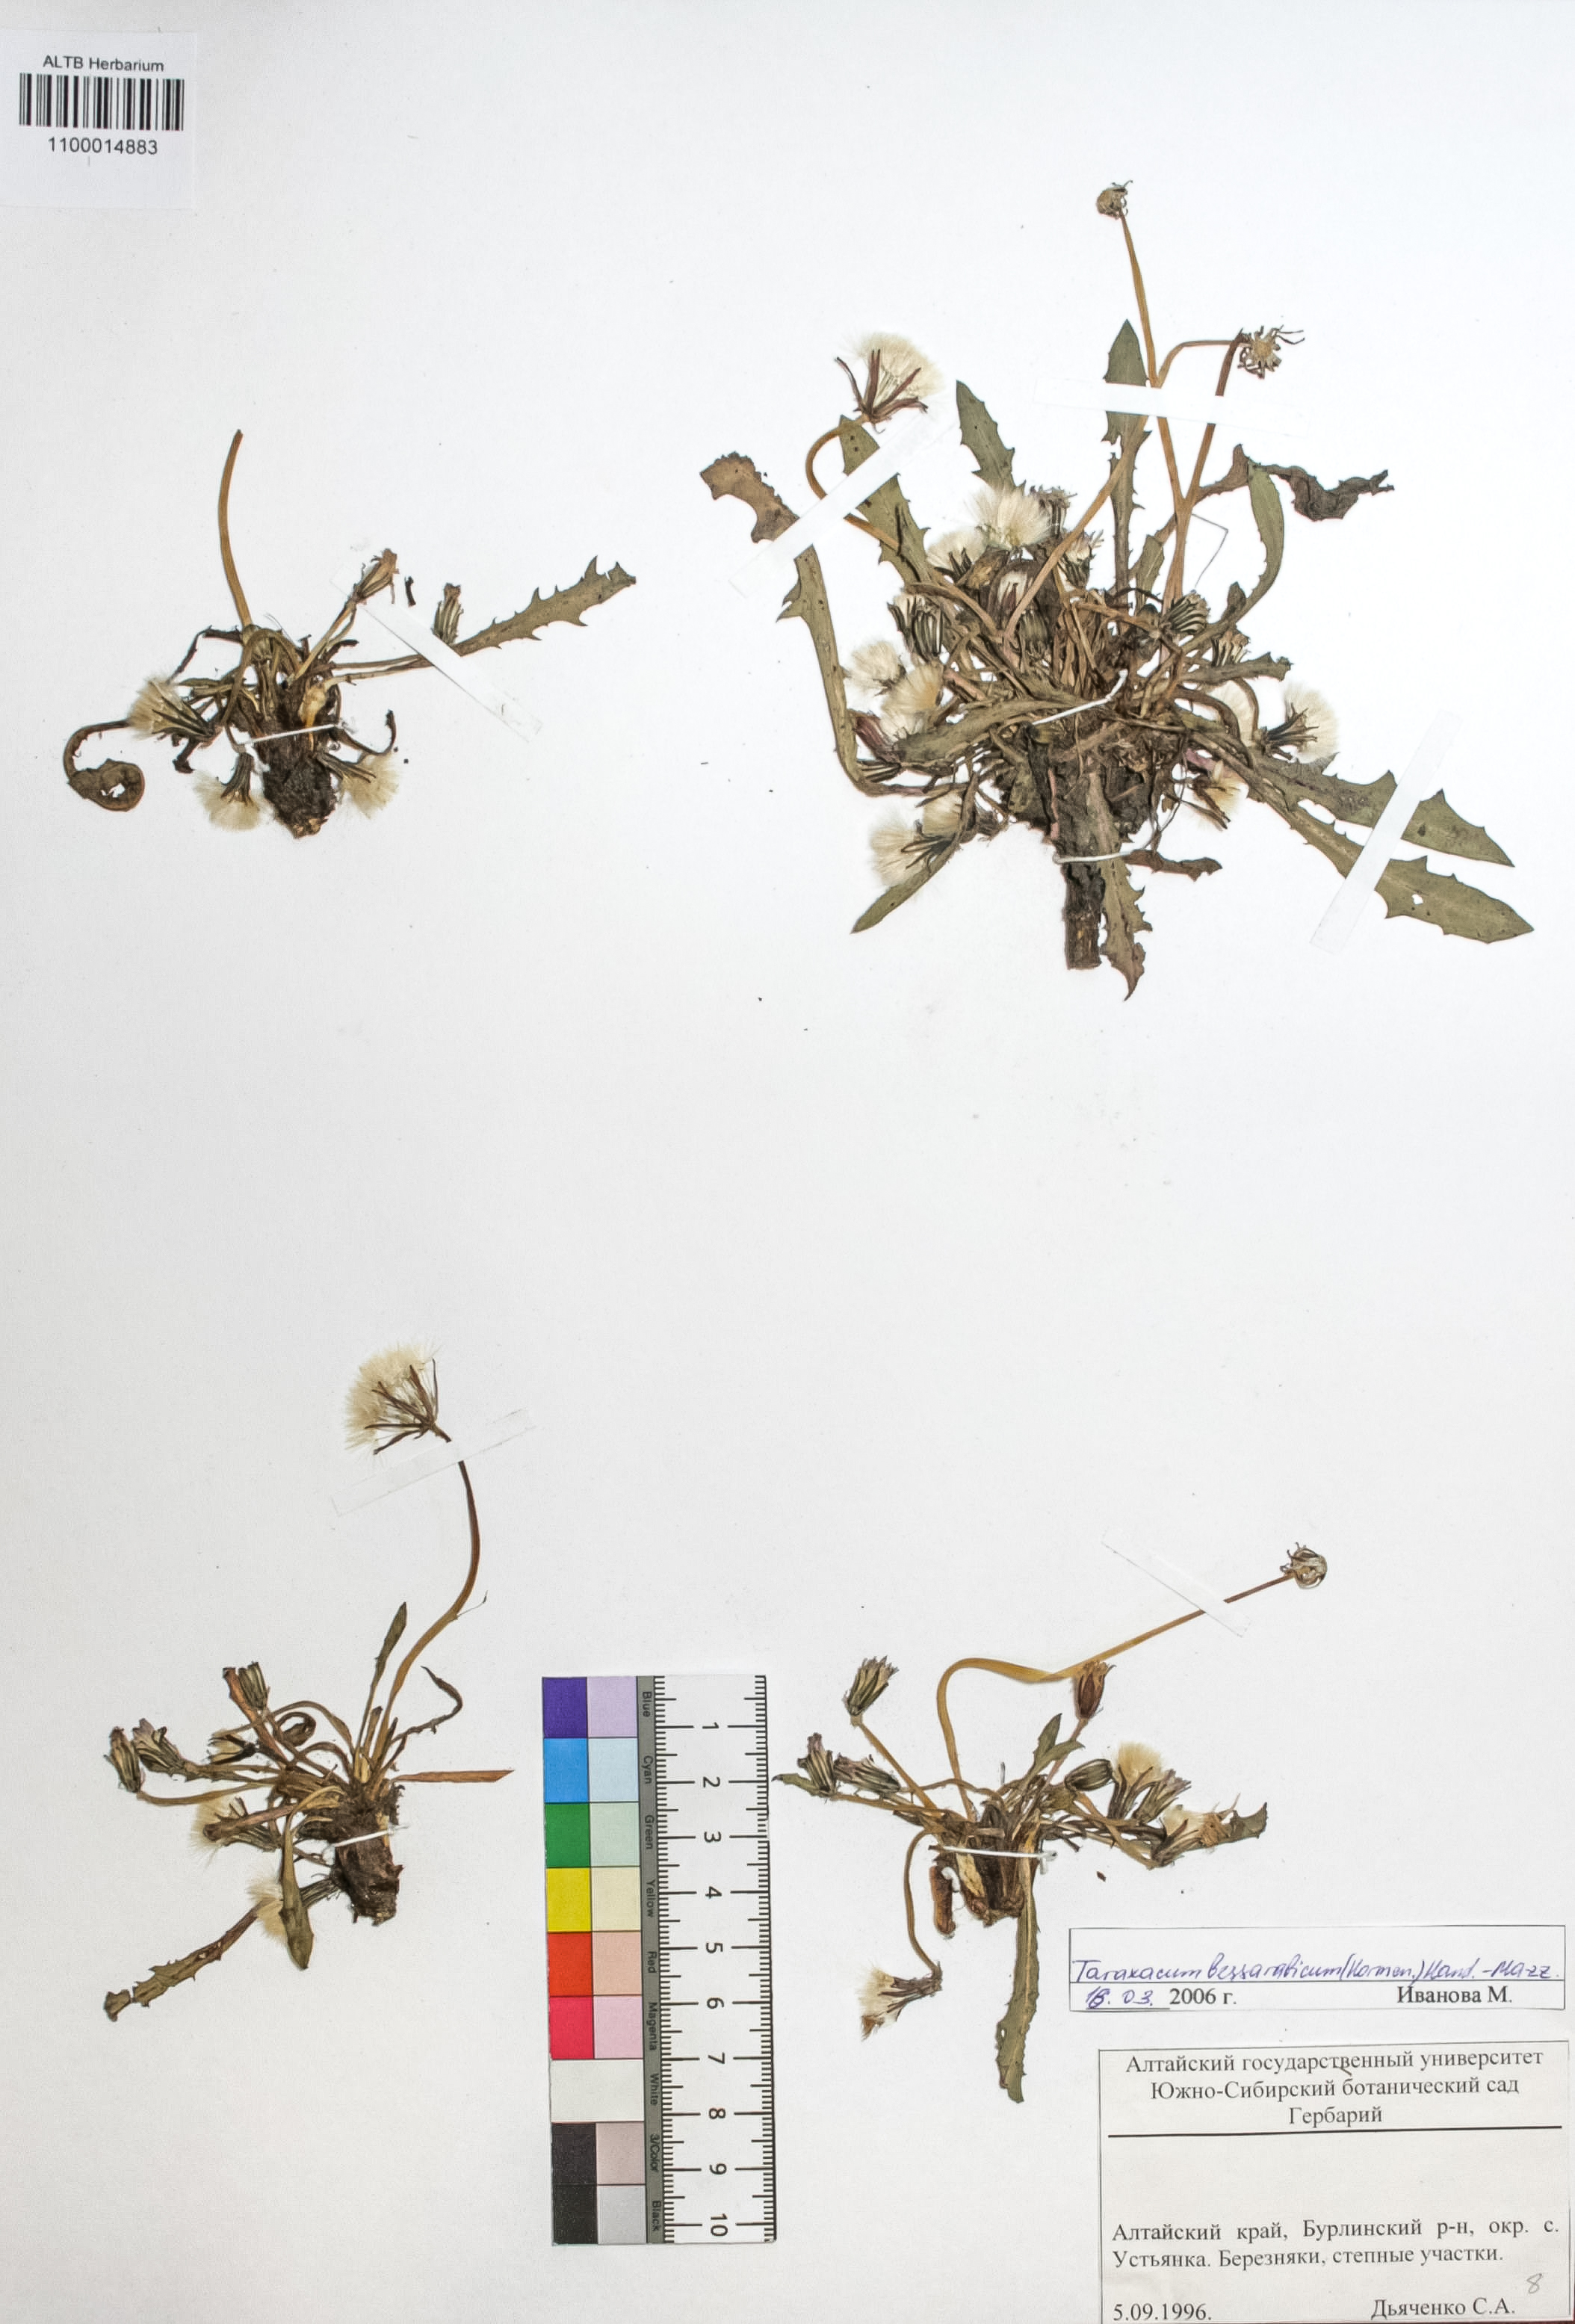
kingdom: Plantae
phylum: Tracheophyta
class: Magnoliopsida
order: Asterales
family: Asteraceae
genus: Taraxacum
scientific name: Taraxacum bessarabicum
